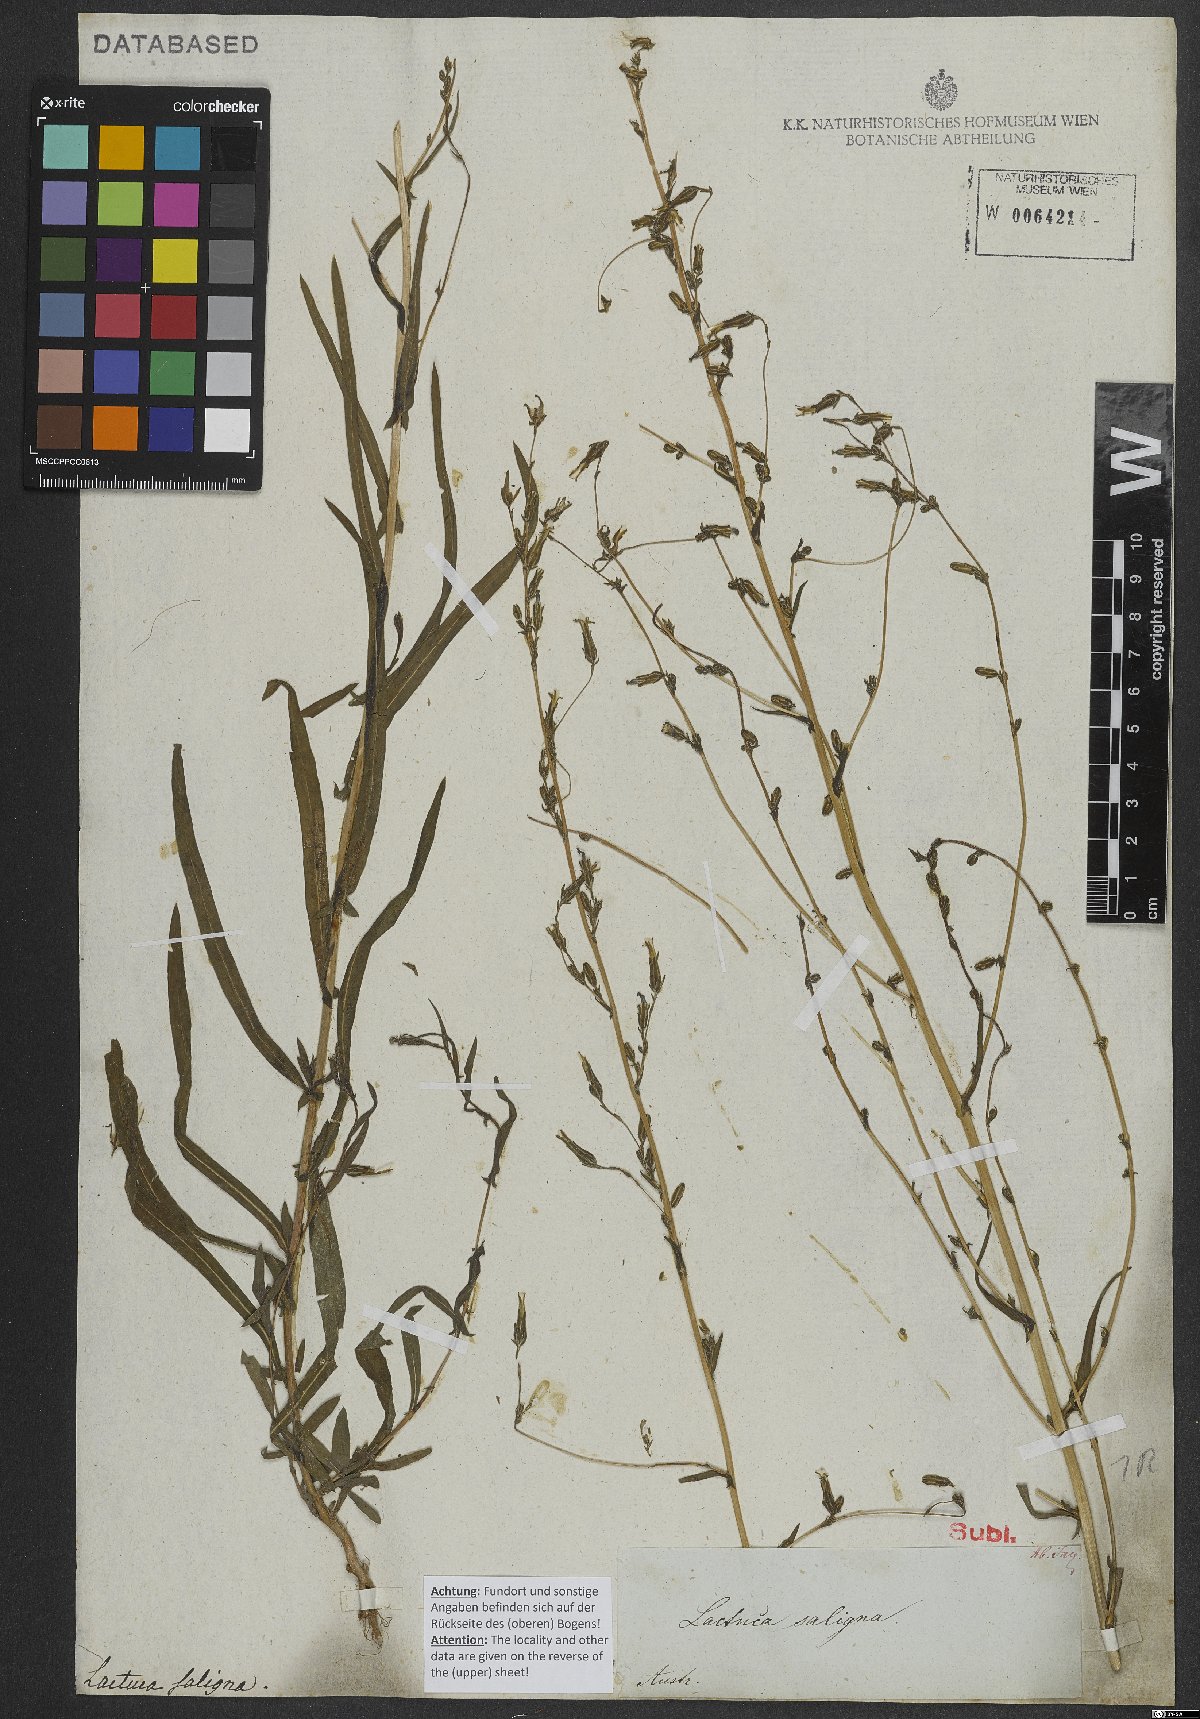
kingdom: Plantae
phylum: Tracheophyta
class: Magnoliopsida
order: Asterales
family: Asteraceae
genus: Lactuca
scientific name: Lactuca saligna
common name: Wild lettuce
